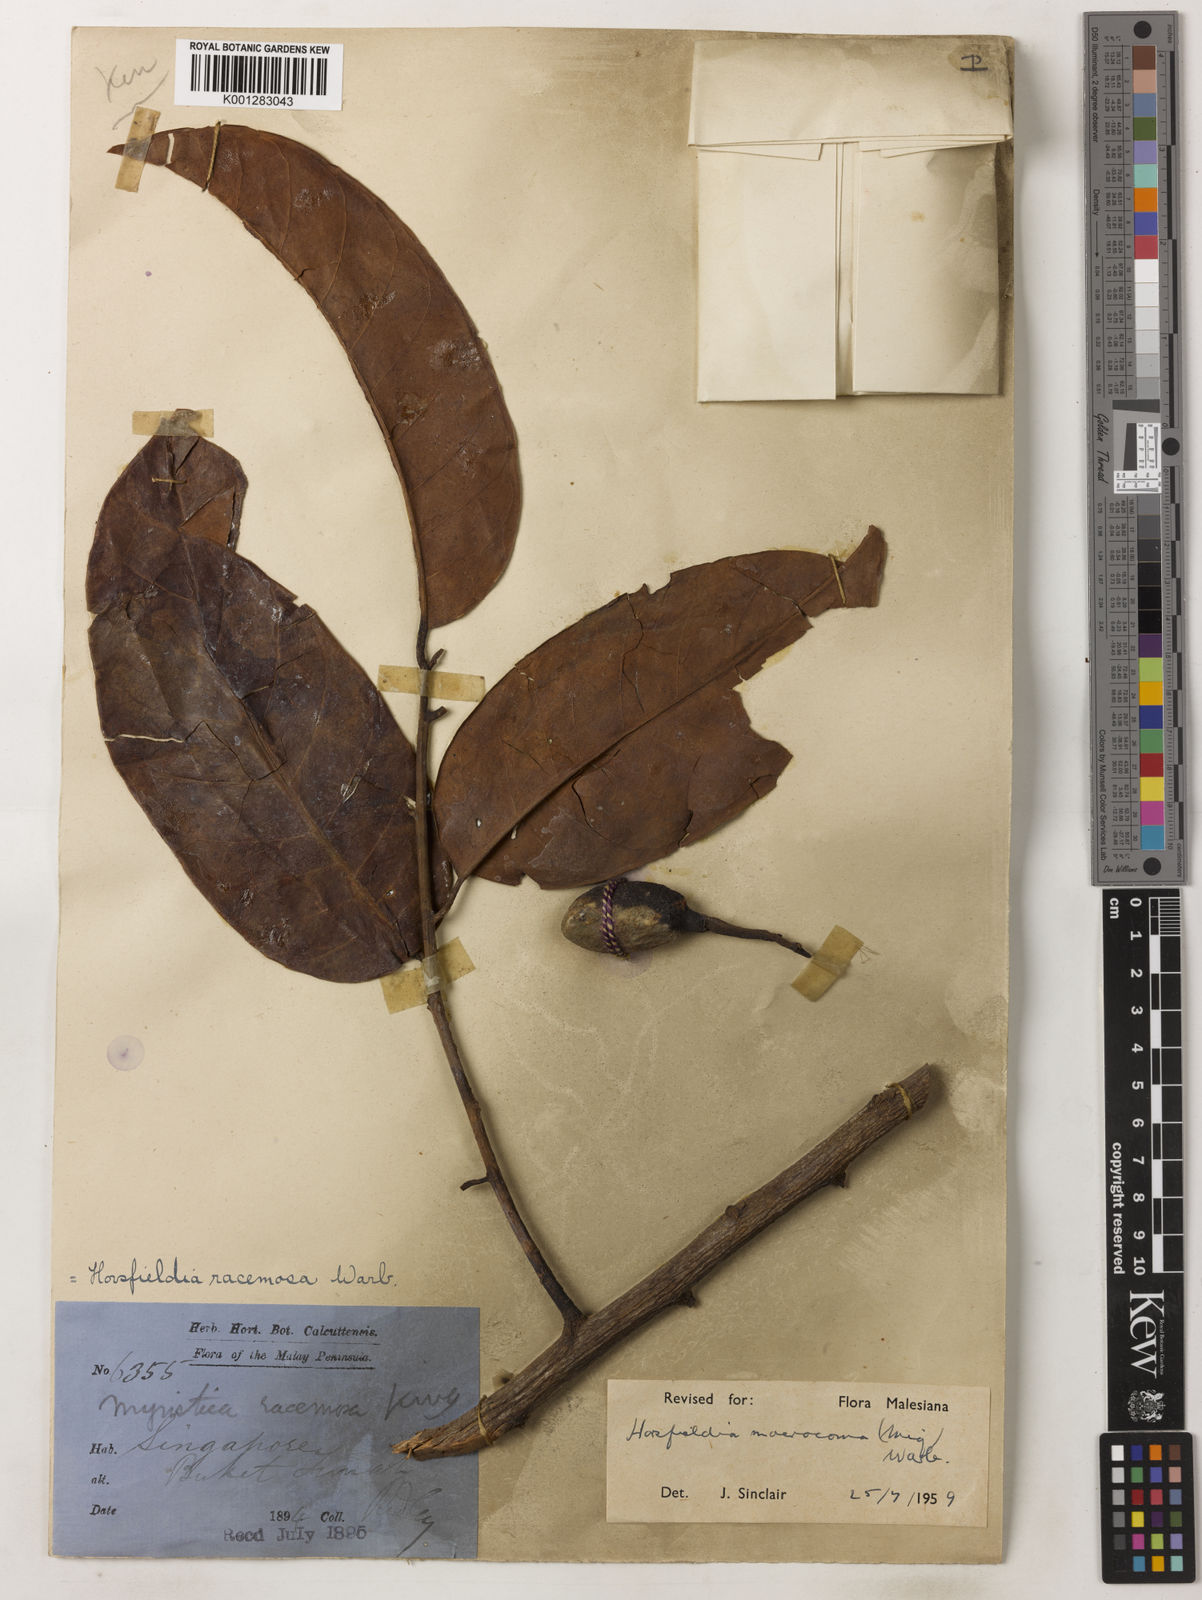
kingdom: Plantae
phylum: Tracheophyta
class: Magnoliopsida
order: Magnoliales
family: Myristicaceae
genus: Endocomia
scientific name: Endocomia canarioides
